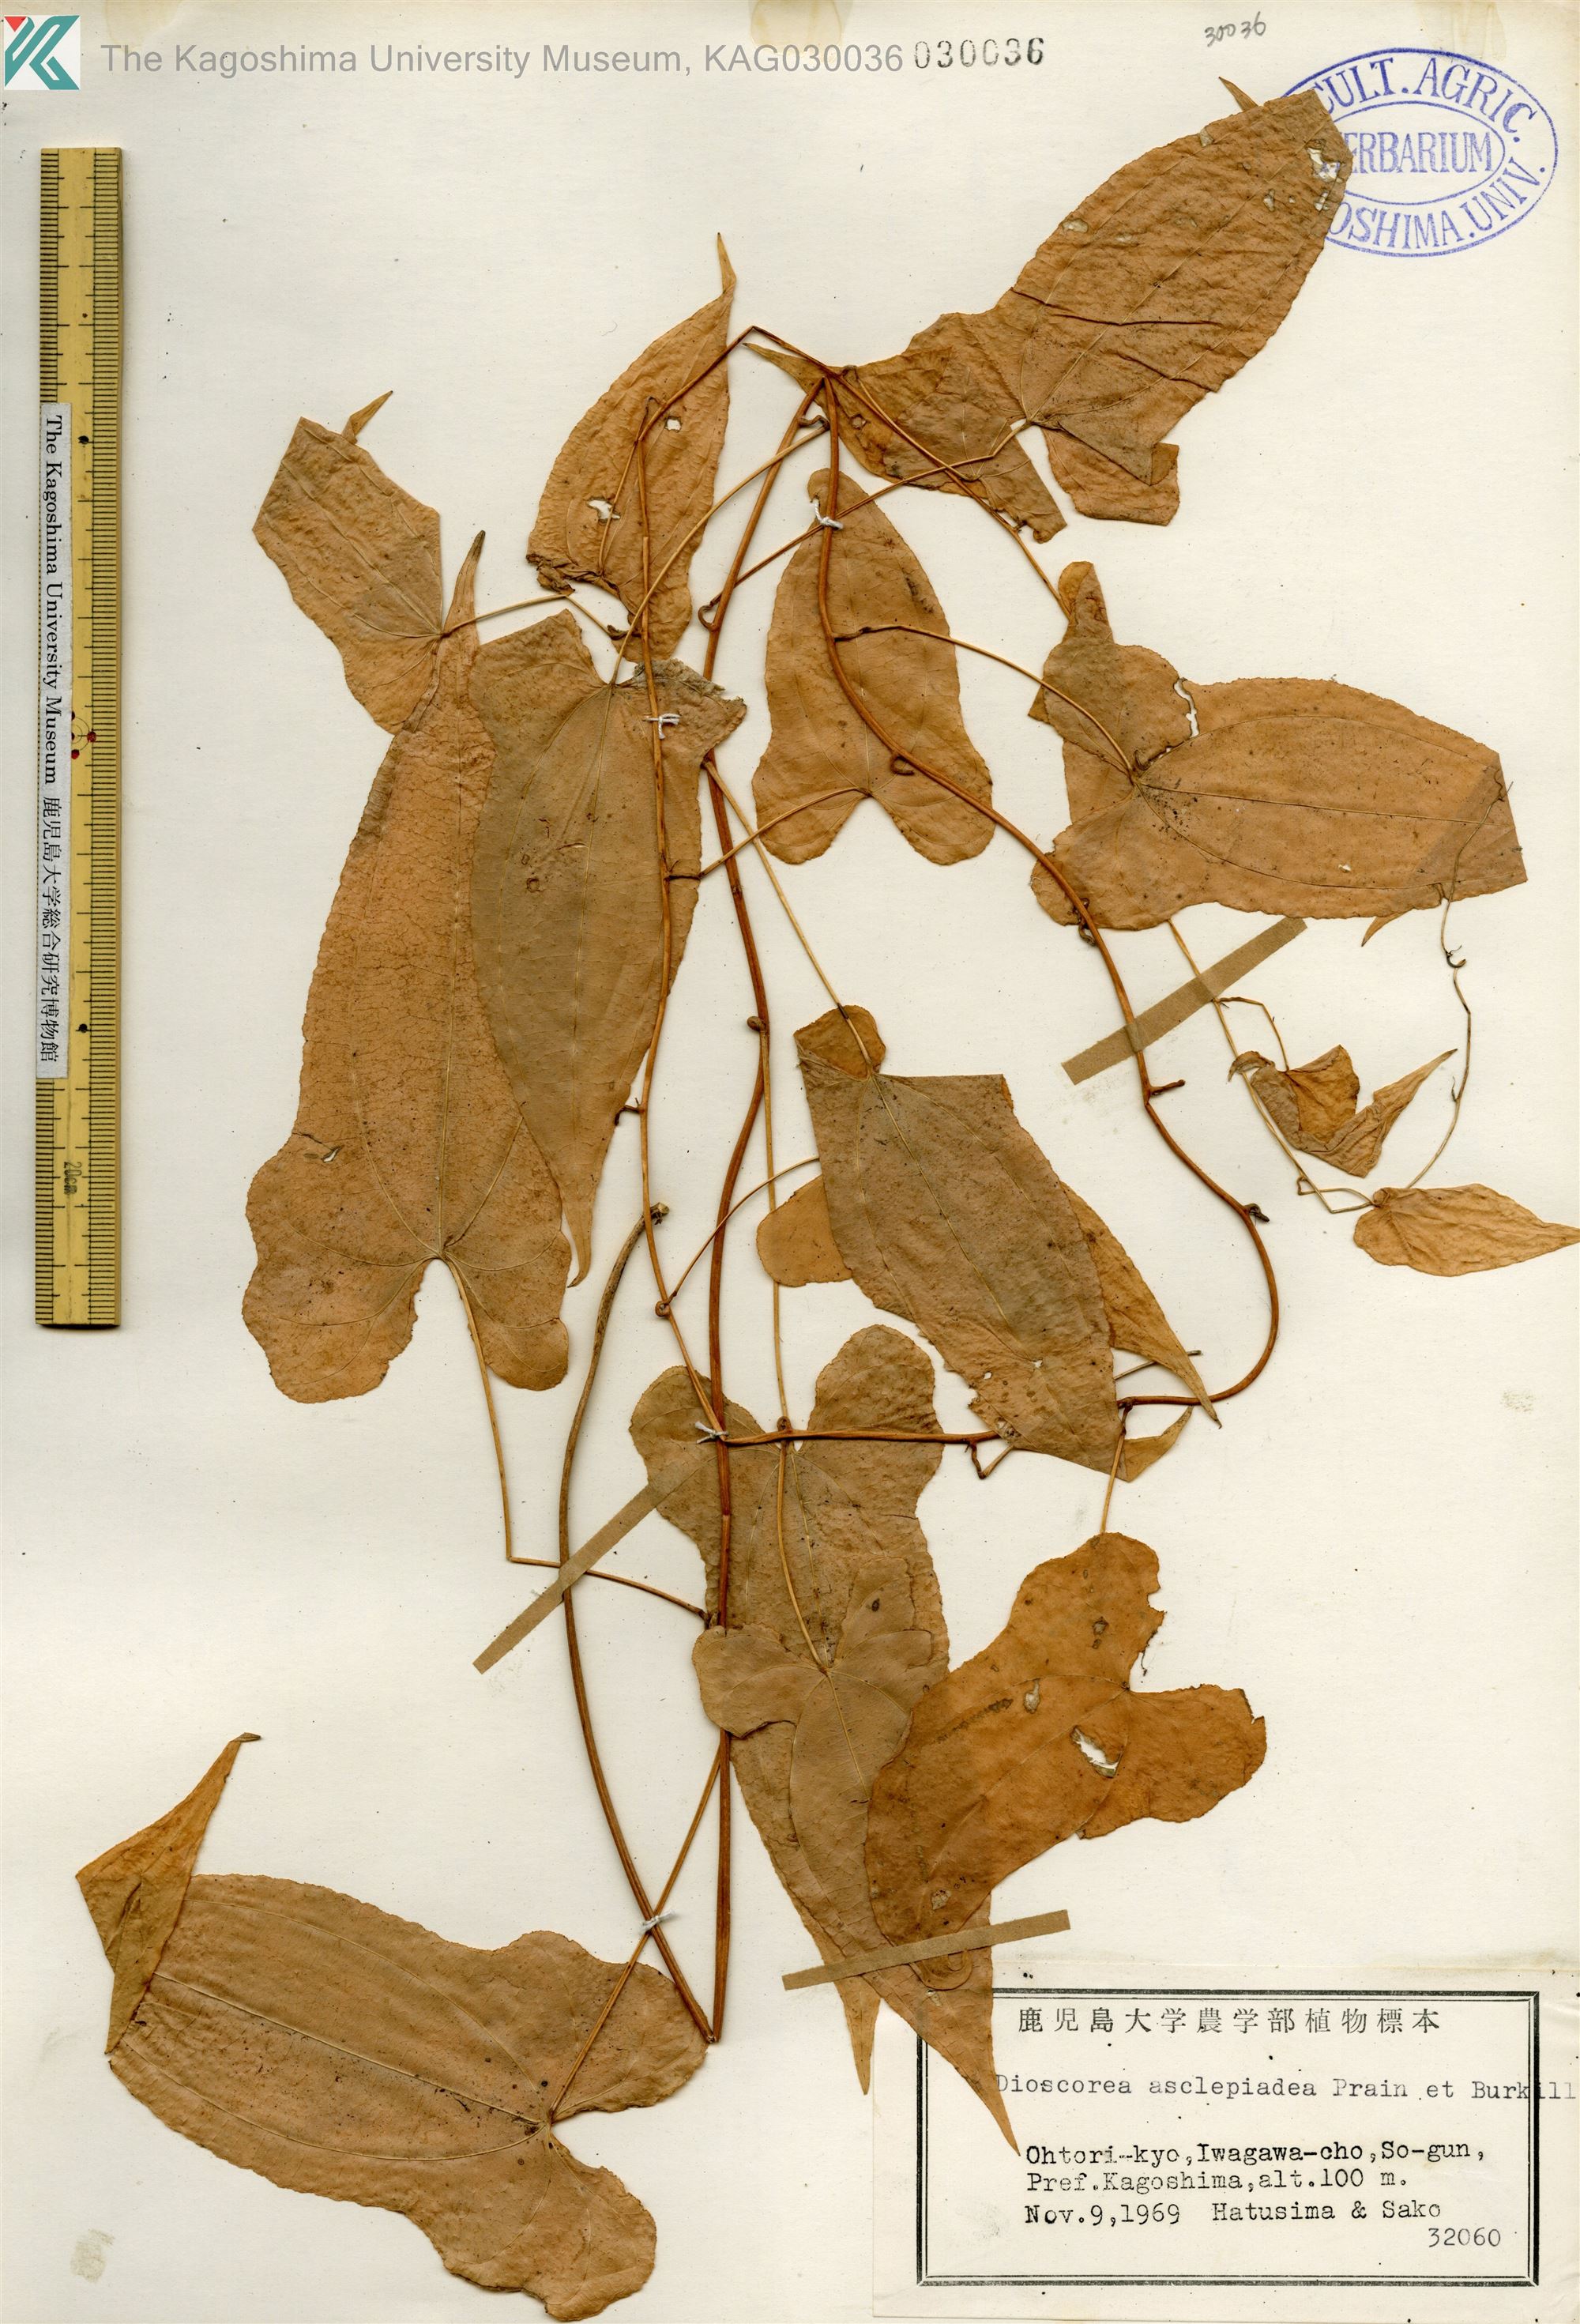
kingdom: Plantae
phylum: Tracheophyta
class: Liliopsida
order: Dioscoreales
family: Dioscoreaceae
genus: Dioscorea
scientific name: Dioscorea asclepiadea
